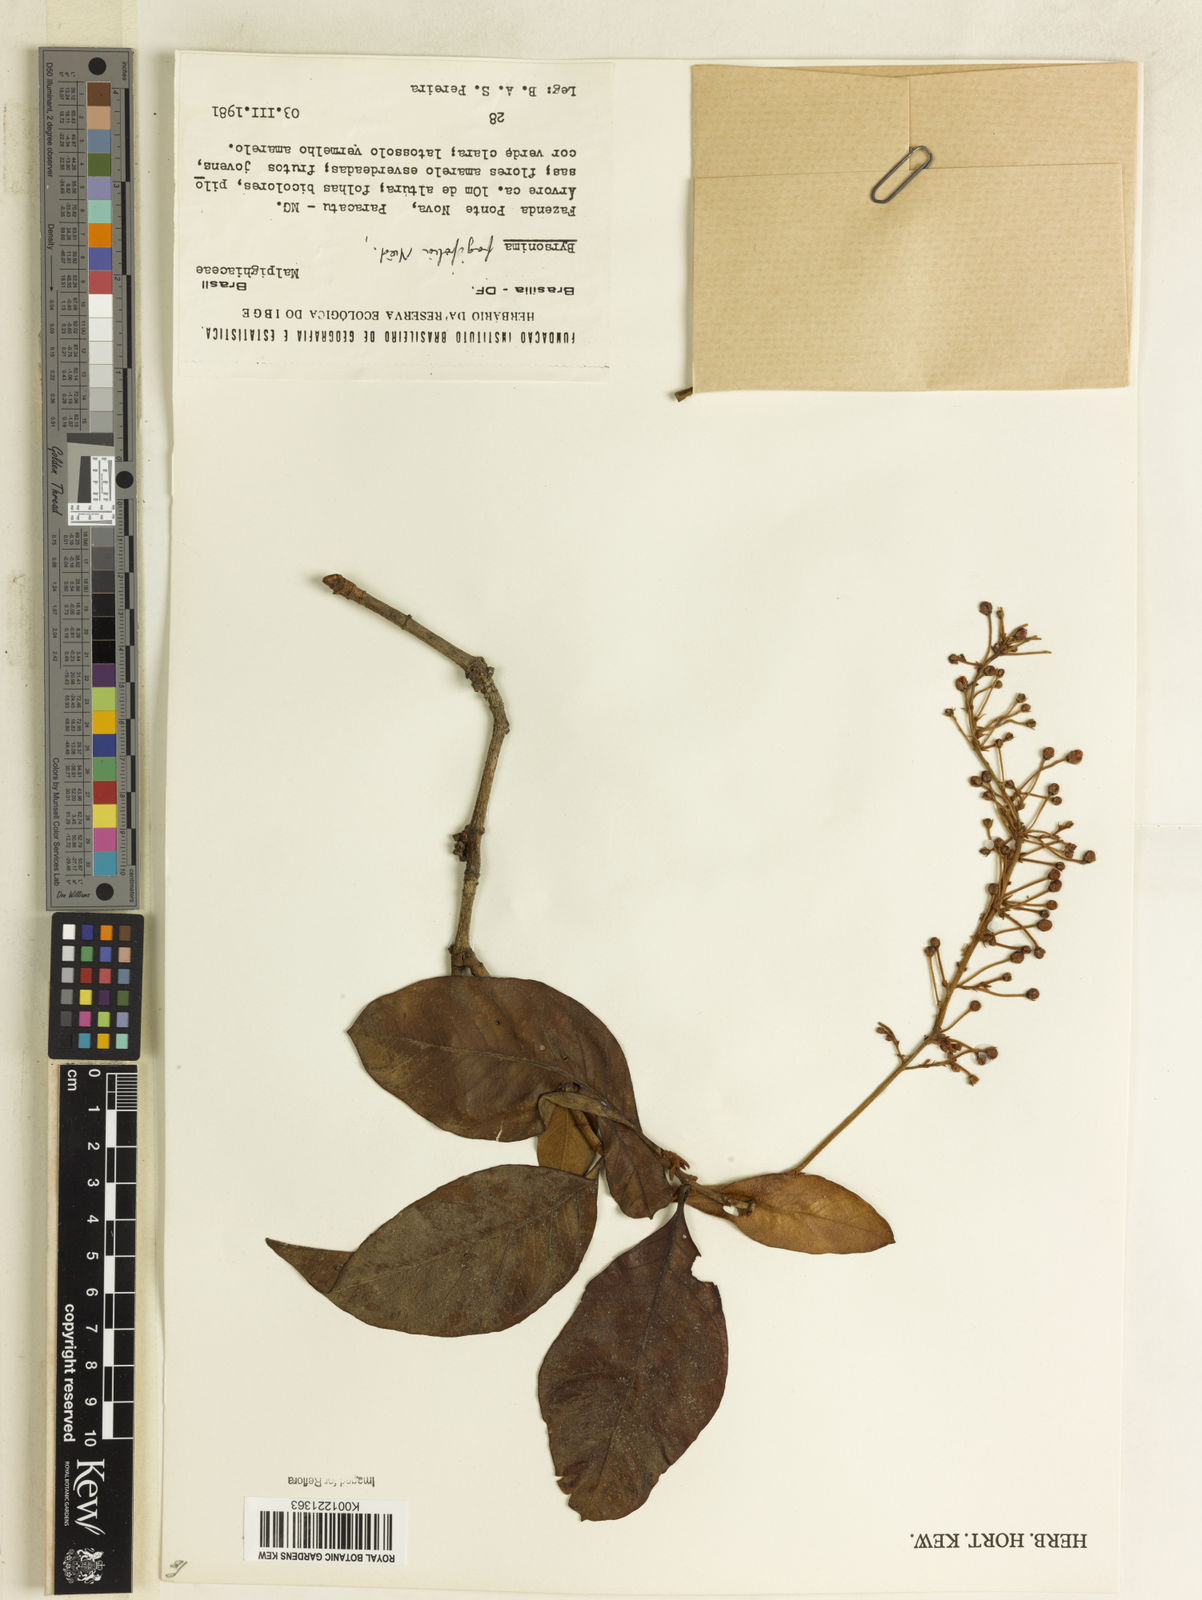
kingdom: Plantae
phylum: Tracheophyta
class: Magnoliopsida
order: Malpighiales
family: Malpighiaceae
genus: Byrsonima
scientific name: Byrsonima crassifolia
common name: Golden spoon
